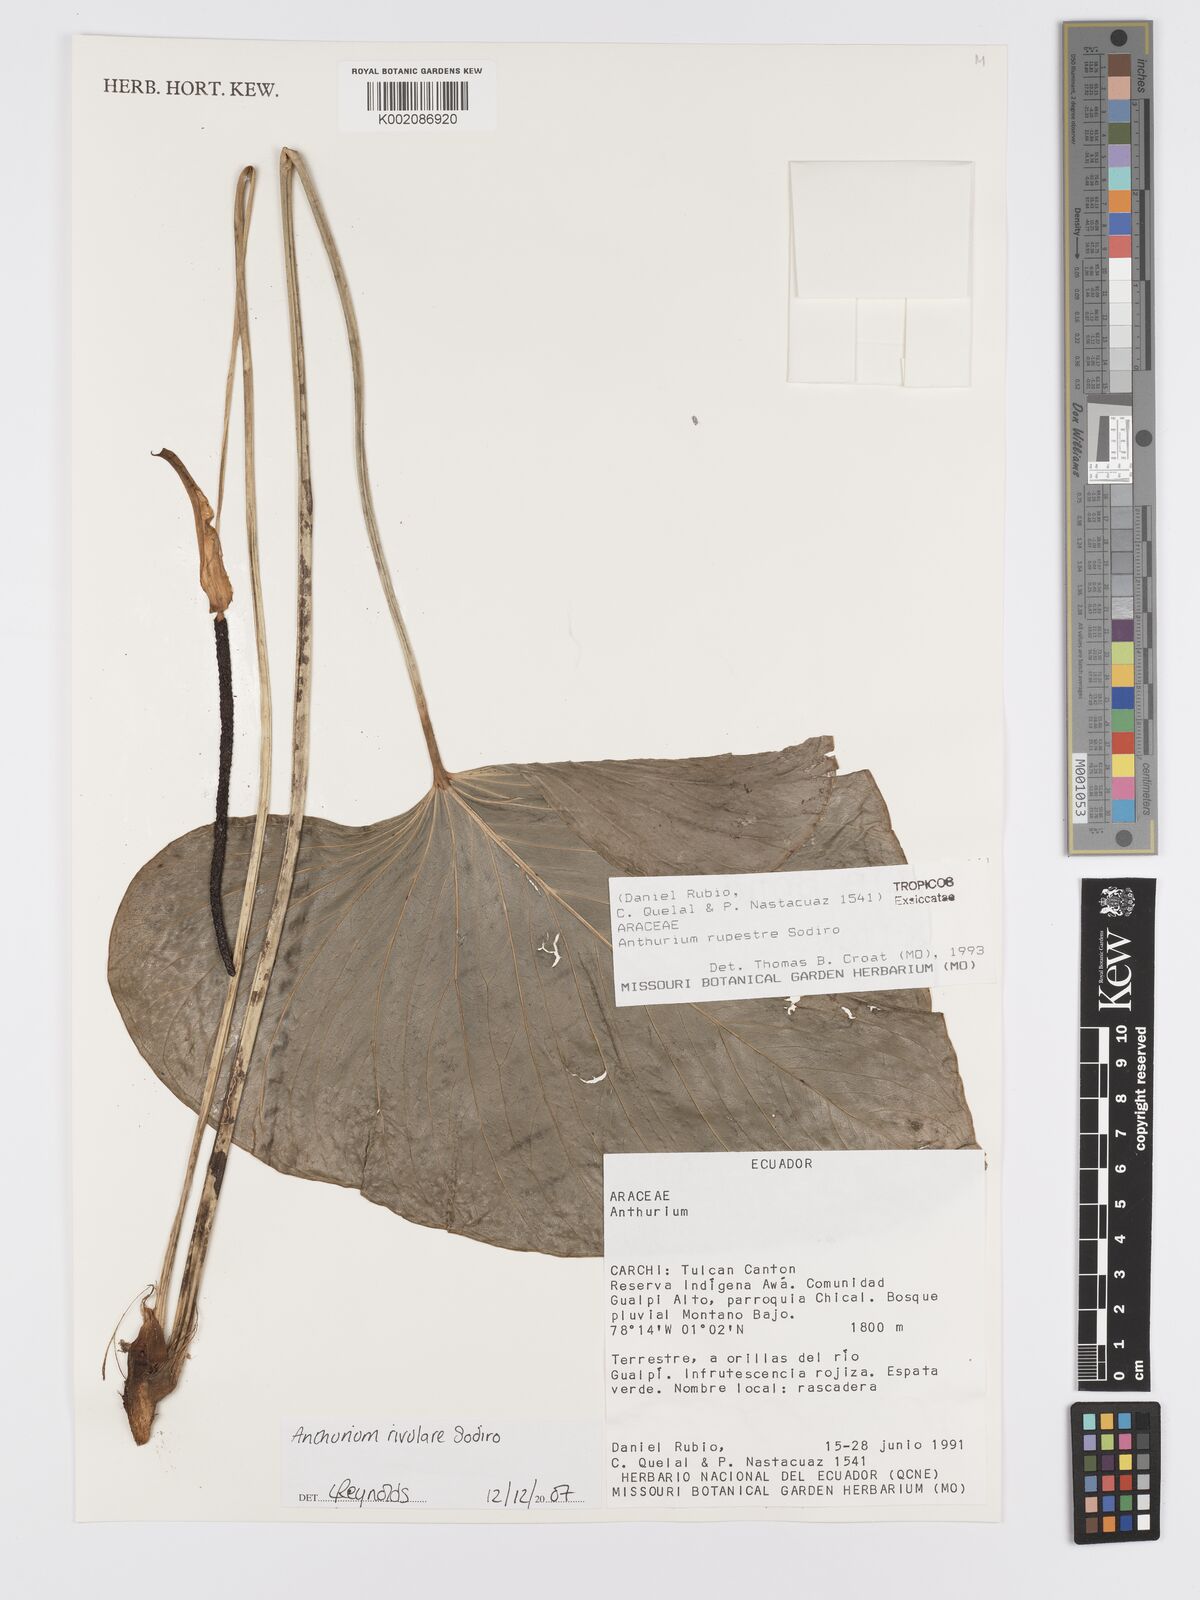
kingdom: Plantae
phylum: Tracheophyta
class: Liliopsida
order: Alismatales
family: Araceae
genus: Anthurium
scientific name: Anthurium rivulare
